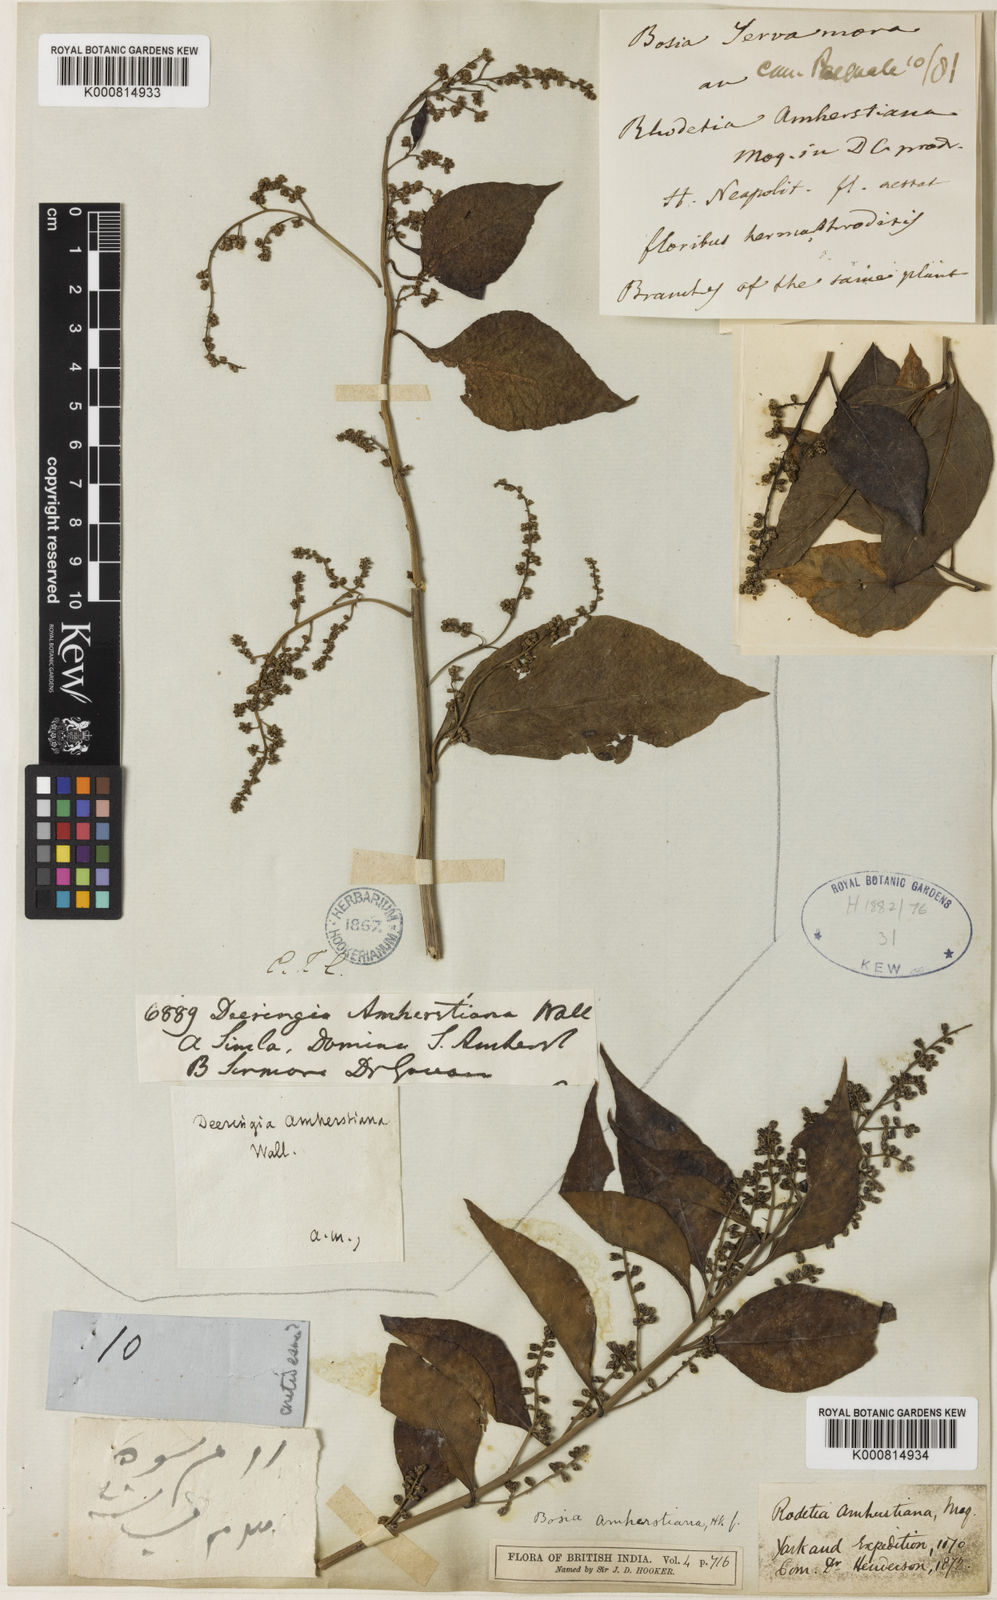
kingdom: Plantae
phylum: Tracheophyta
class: Magnoliopsida
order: Caryophyllales
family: Amaranthaceae
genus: Bosea
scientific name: Bosea amherstiana
